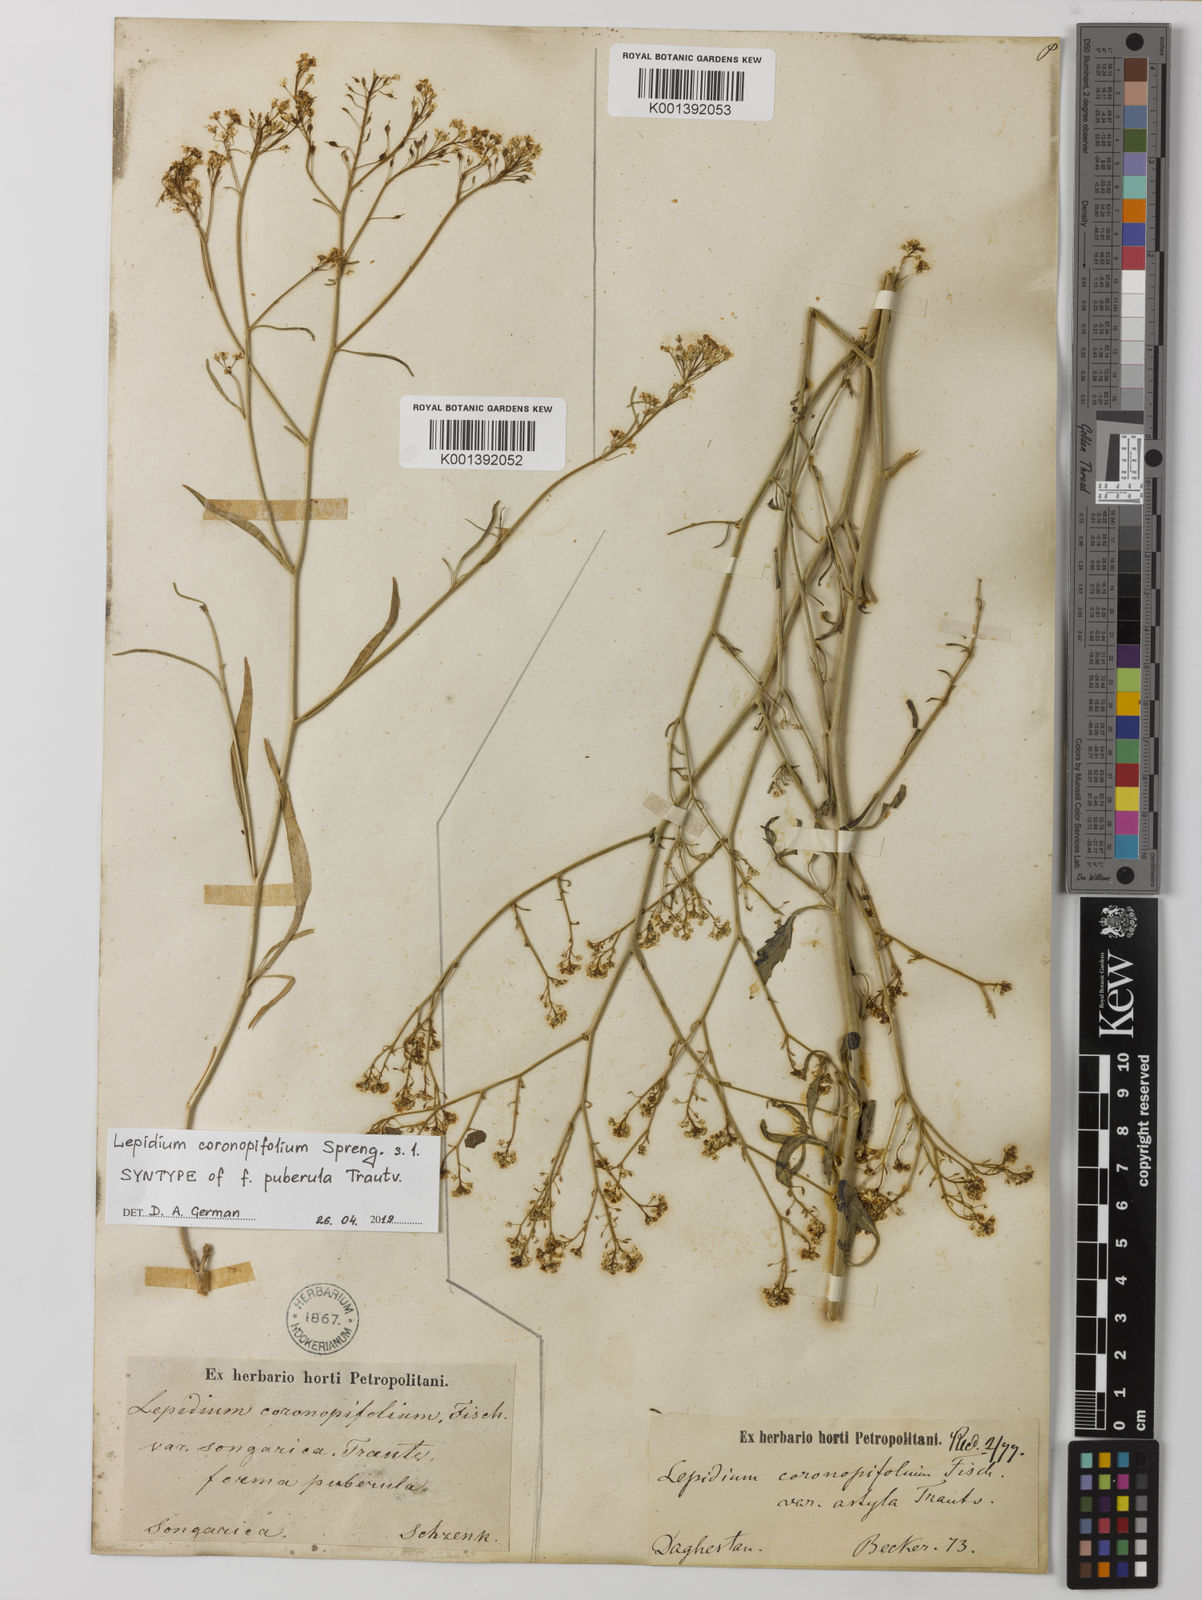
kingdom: Plantae
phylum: Tracheophyta
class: Magnoliopsida
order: Brassicales
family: Brassicaceae
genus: Lepidium
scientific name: Lepidium
